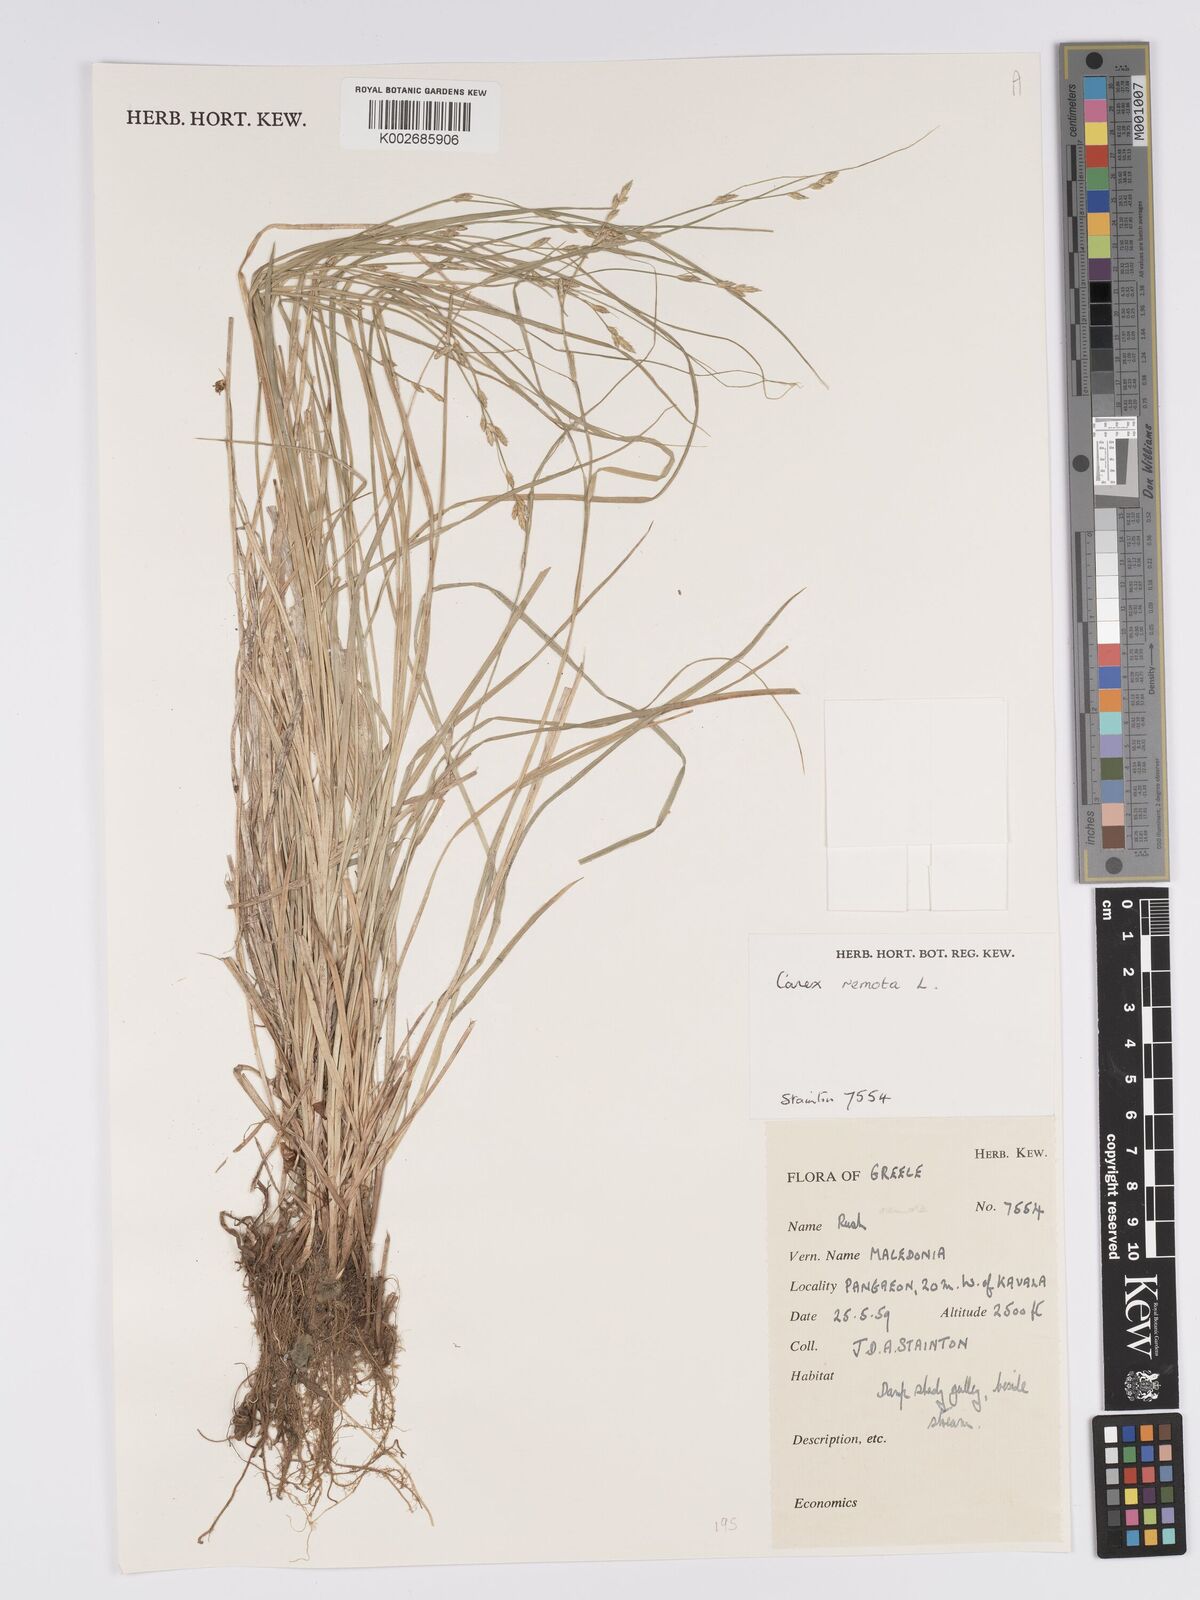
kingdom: Plantae
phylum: Tracheophyta
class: Liliopsida
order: Poales
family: Cyperaceae
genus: Carex
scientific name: Carex remota
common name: Remote sedge
